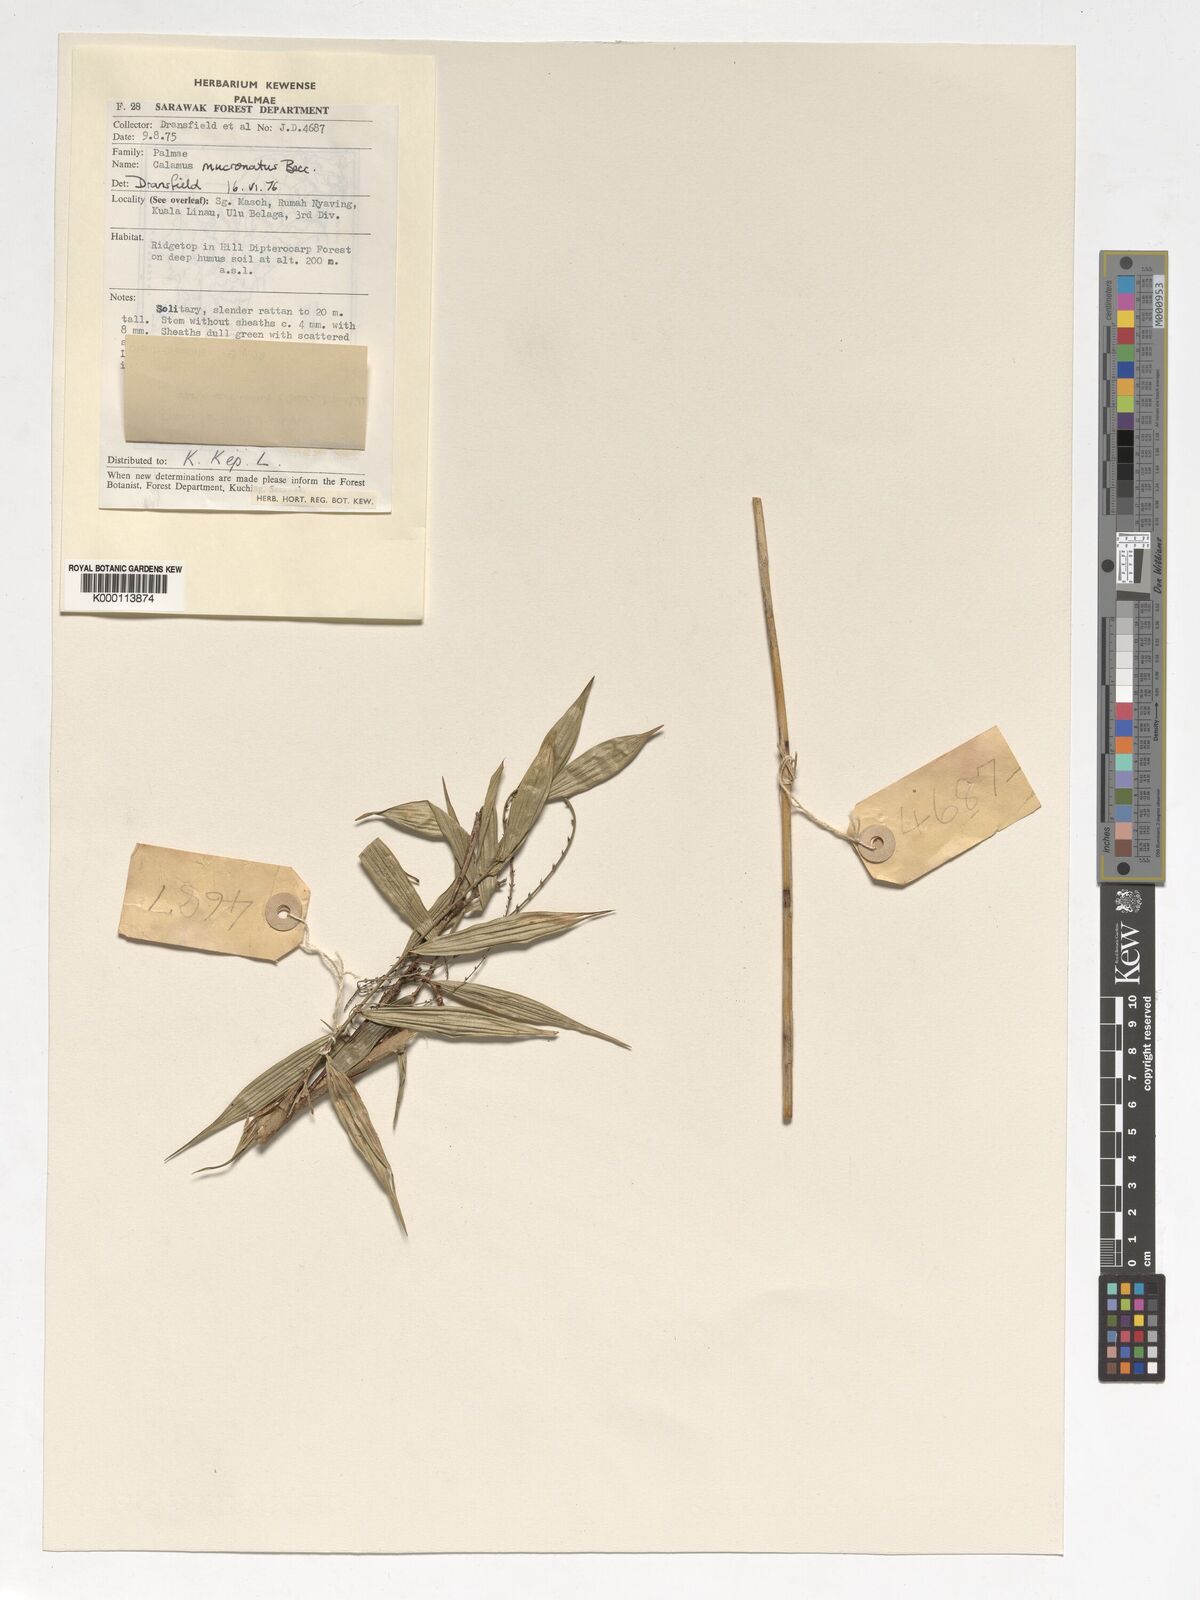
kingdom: Plantae
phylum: Tracheophyta
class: Liliopsida
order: Arecales
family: Arecaceae
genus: Calamus
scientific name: Calamus plicatus
